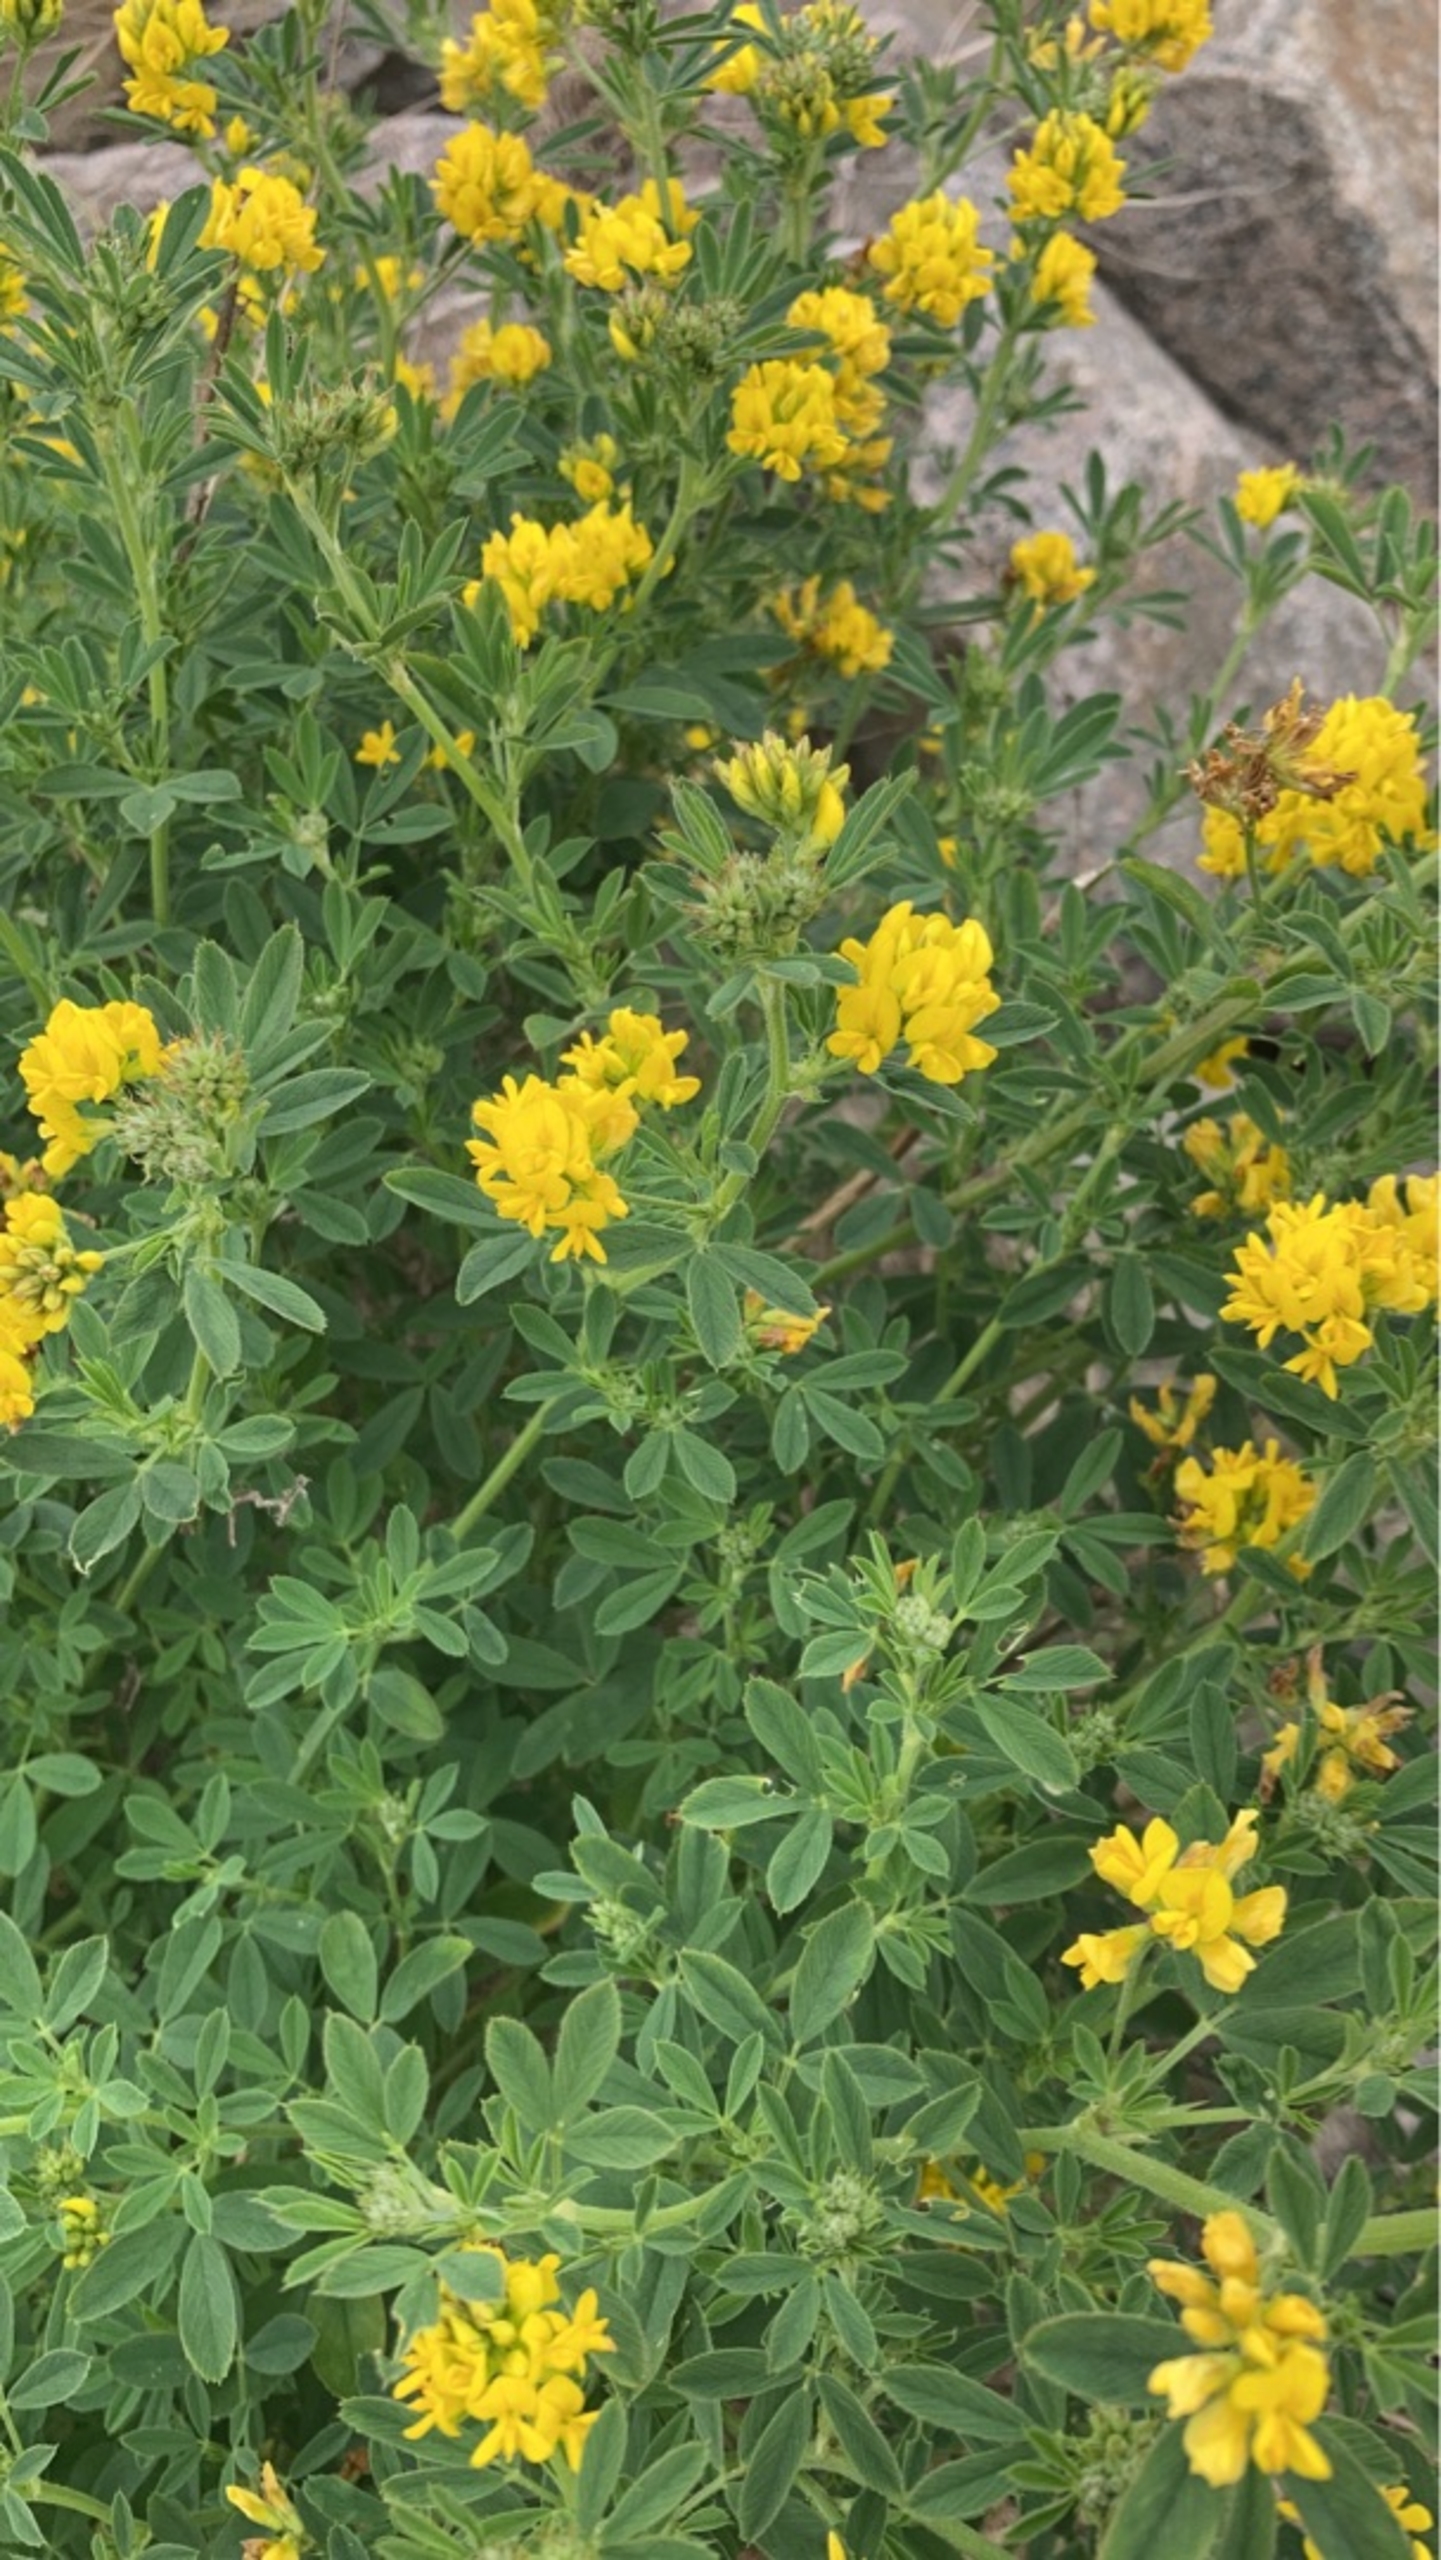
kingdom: Plantae
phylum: Tracheophyta
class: Magnoliopsida
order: Fabales
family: Fabaceae
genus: Medicago
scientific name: Medicago falcata
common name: Segl-sneglebælg
